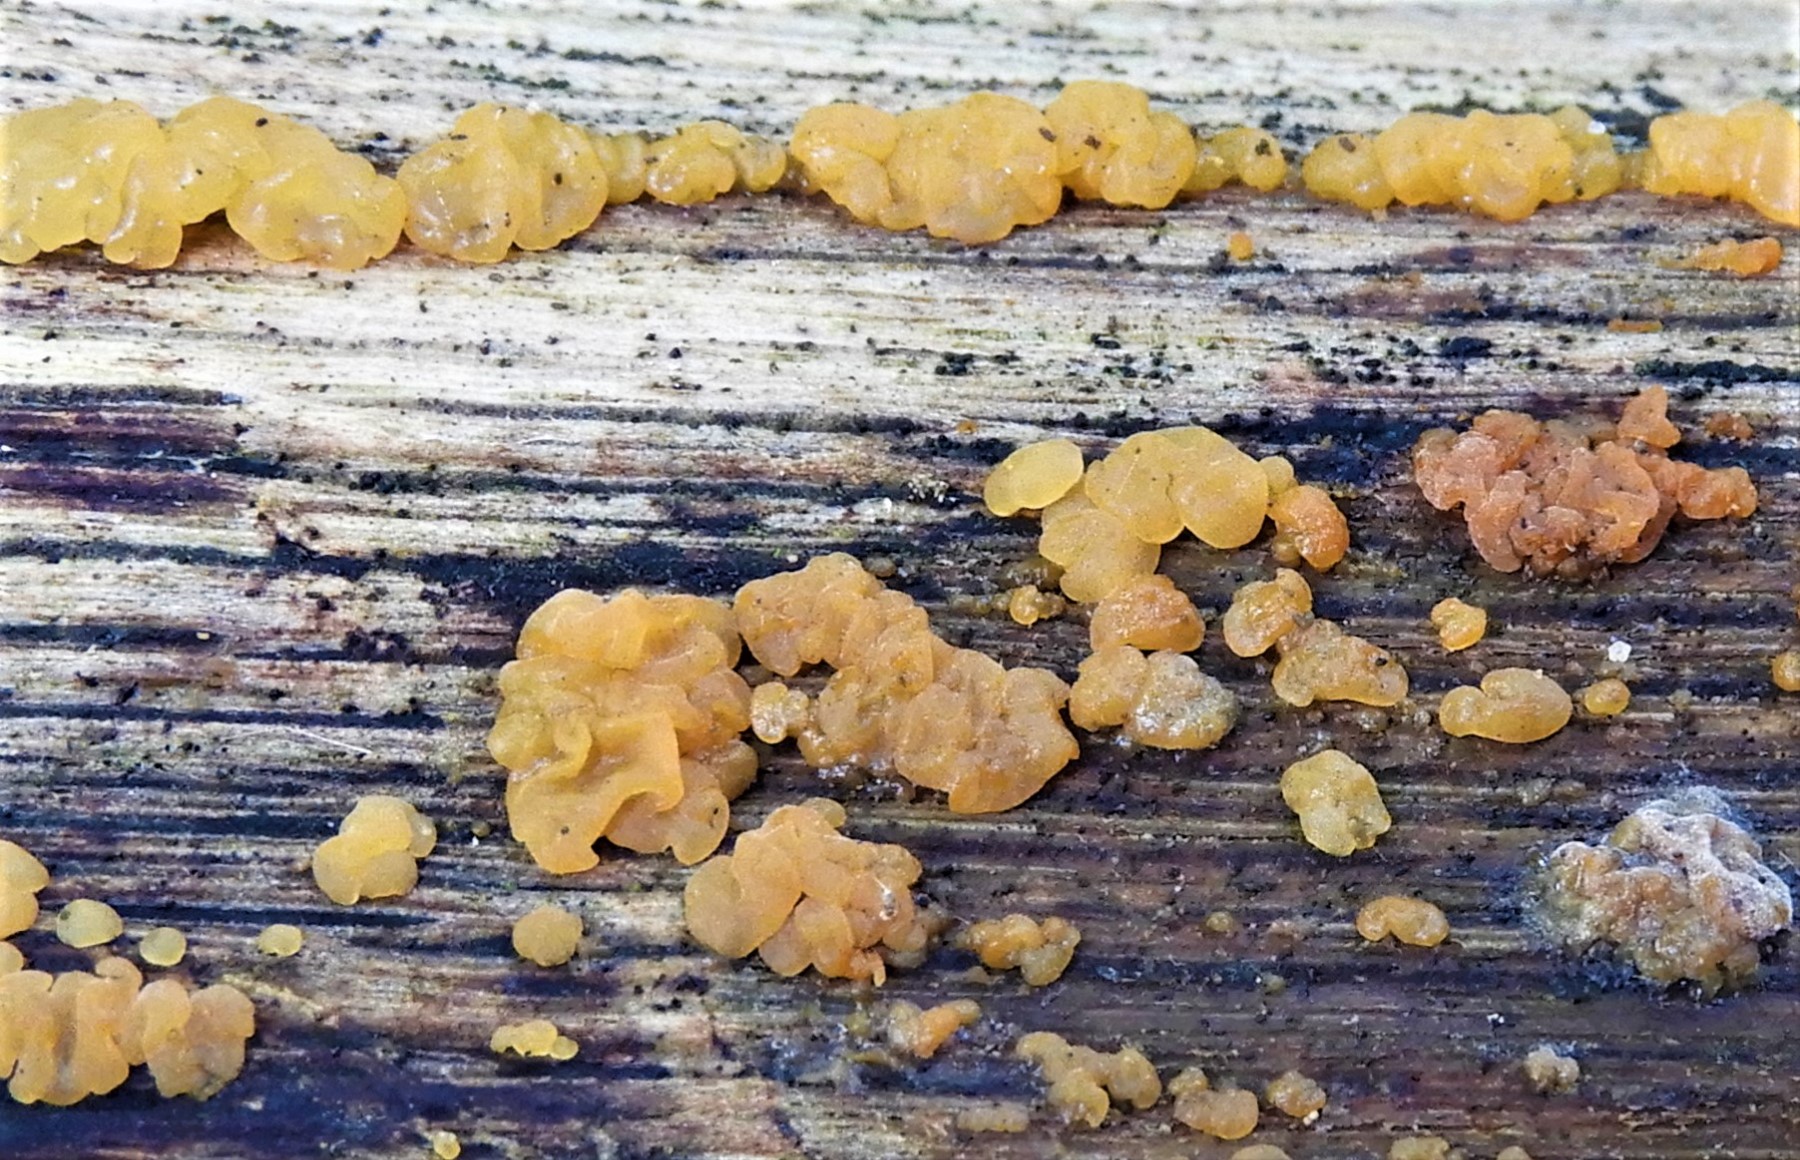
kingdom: Fungi
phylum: Basidiomycota
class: Dacrymycetes
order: Dacrymycetales
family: Dacrymycetaceae
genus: Dacrymyces
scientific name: Dacrymyces lacrymalis
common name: rynket tåresvamp
